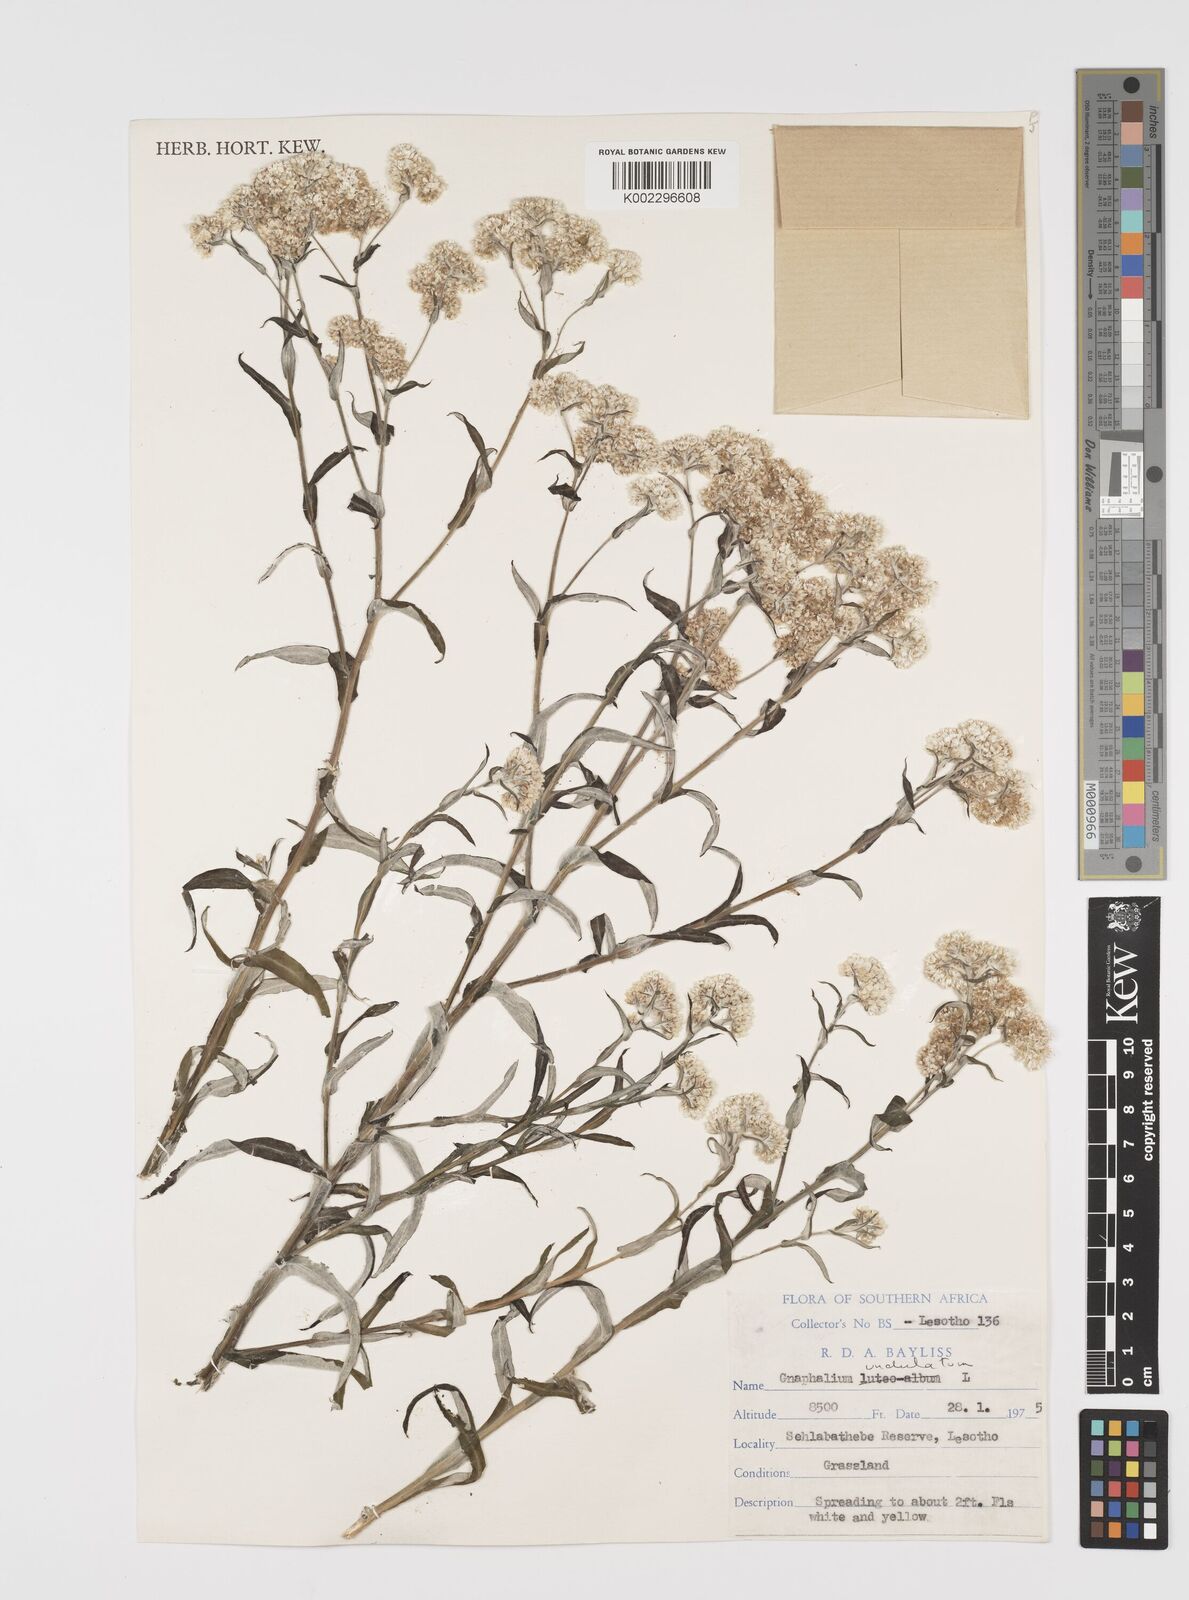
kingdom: Plantae
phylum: Tracheophyta
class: Magnoliopsida
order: Asterales
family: Asteraceae
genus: Pseudognaphalium
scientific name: Pseudognaphalium undulatum
